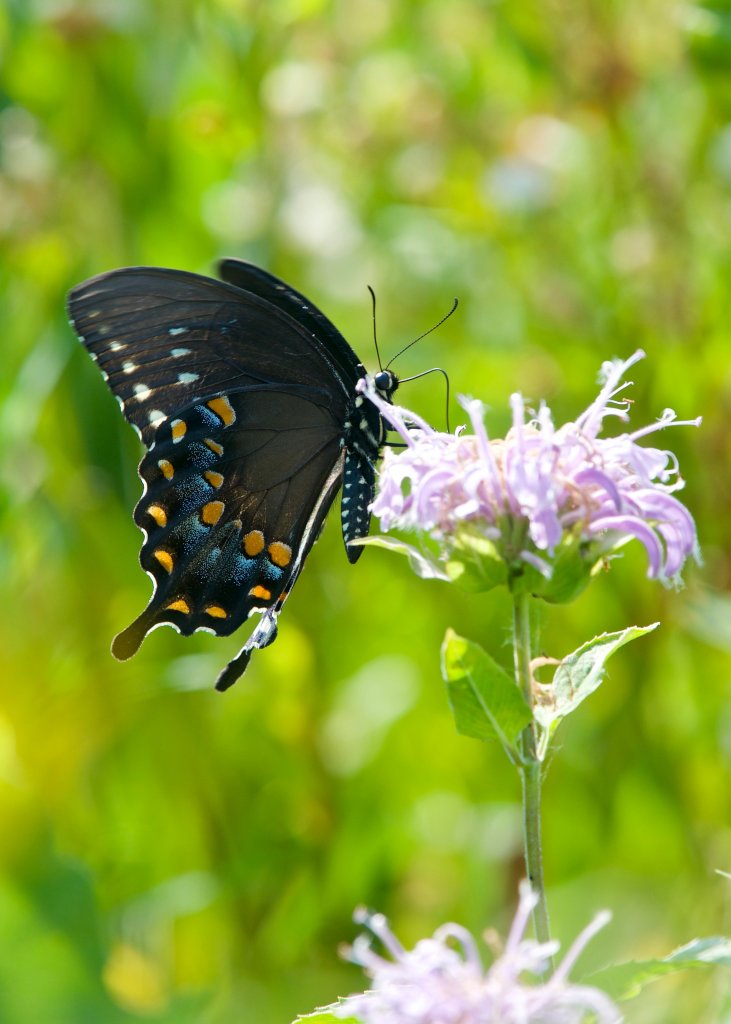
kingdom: Animalia
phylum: Arthropoda
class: Insecta
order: Lepidoptera
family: Papilionidae
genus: Pterourus
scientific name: Pterourus troilus
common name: Spicebush Swallowtail
